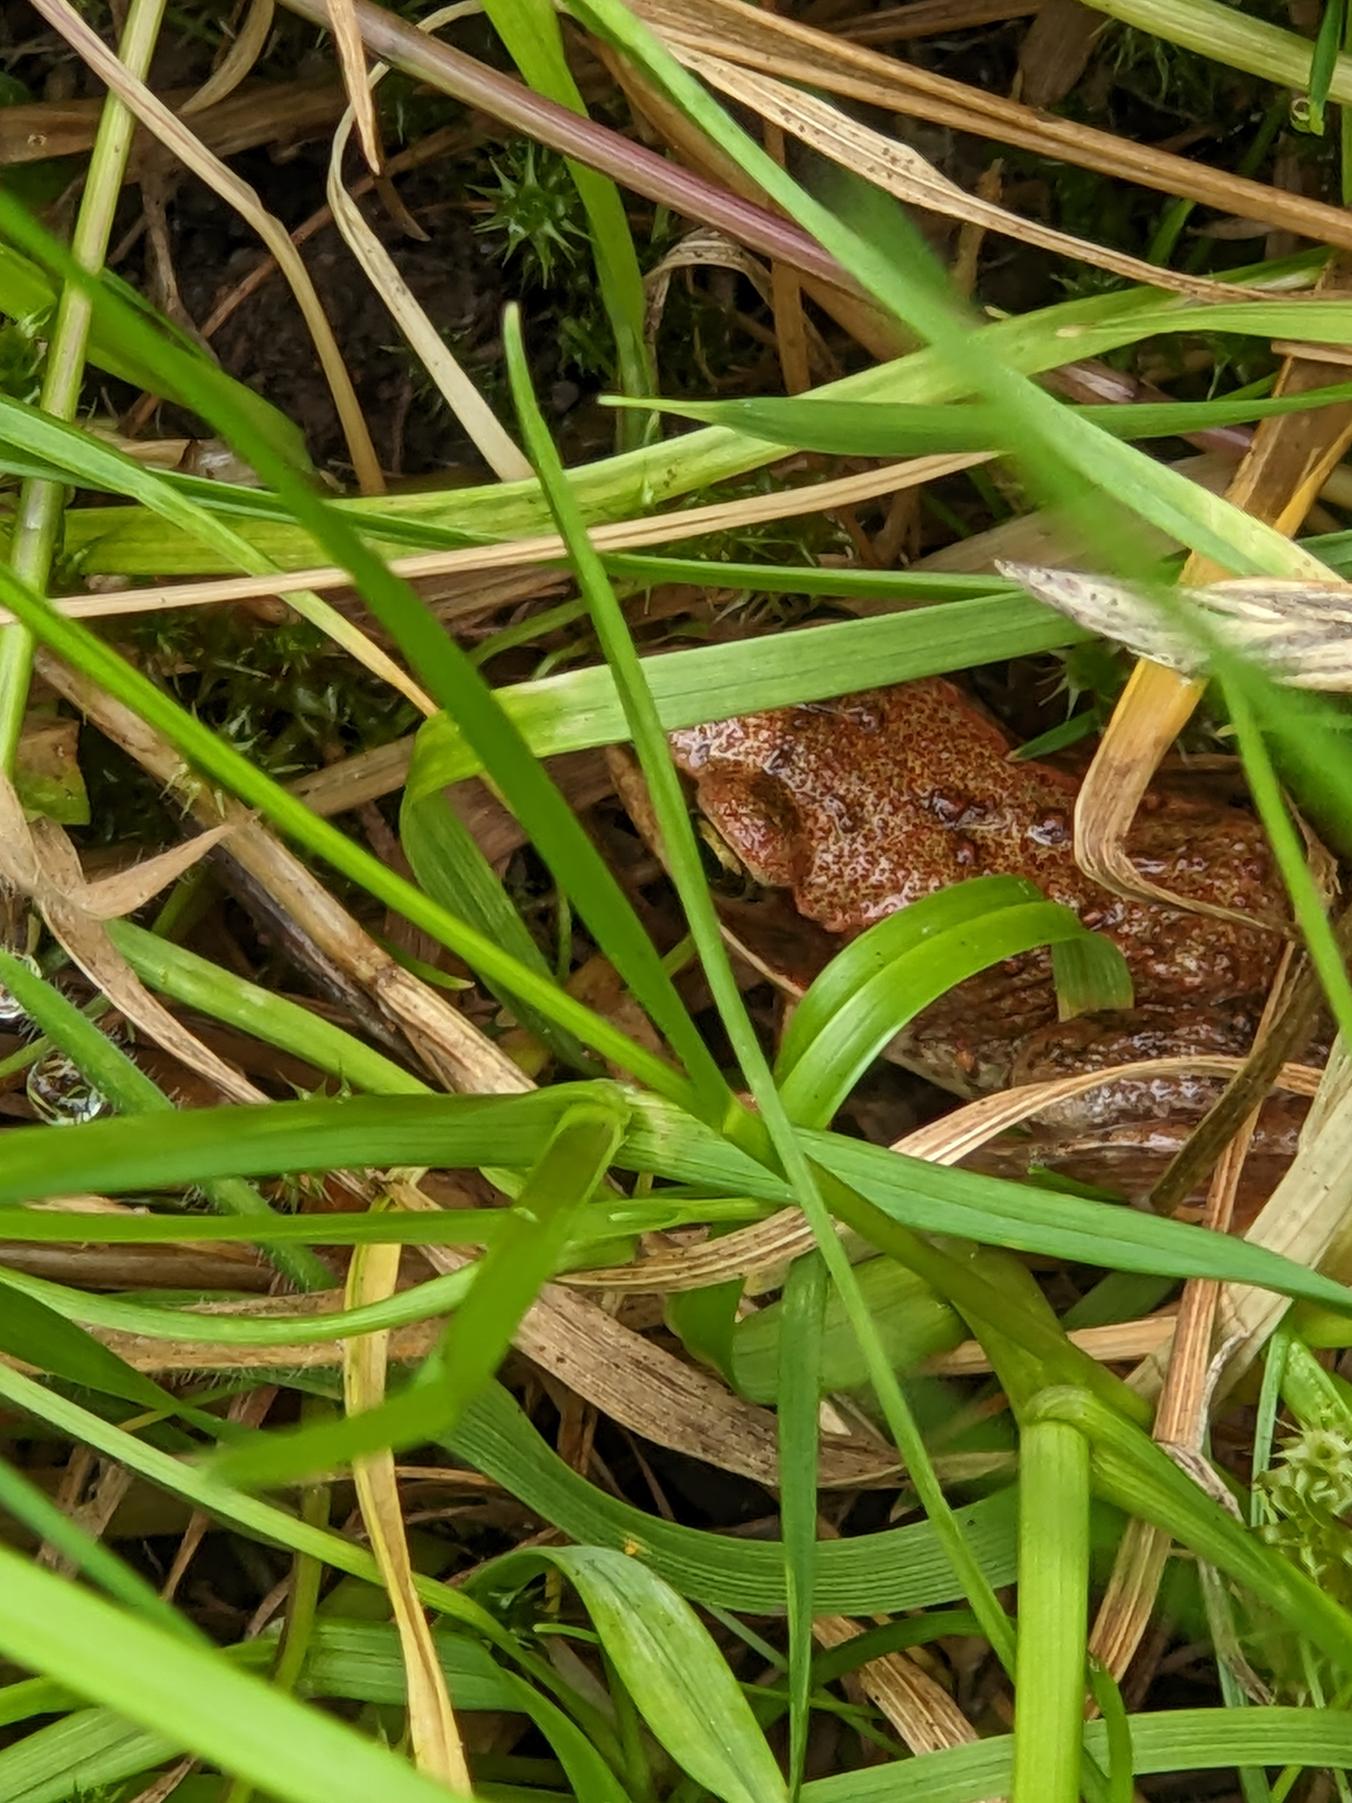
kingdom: Animalia
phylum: Chordata
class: Amphibia
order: Anura
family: Ranidae
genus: Rana
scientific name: Rana temporaria
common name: Butsnudet frø
